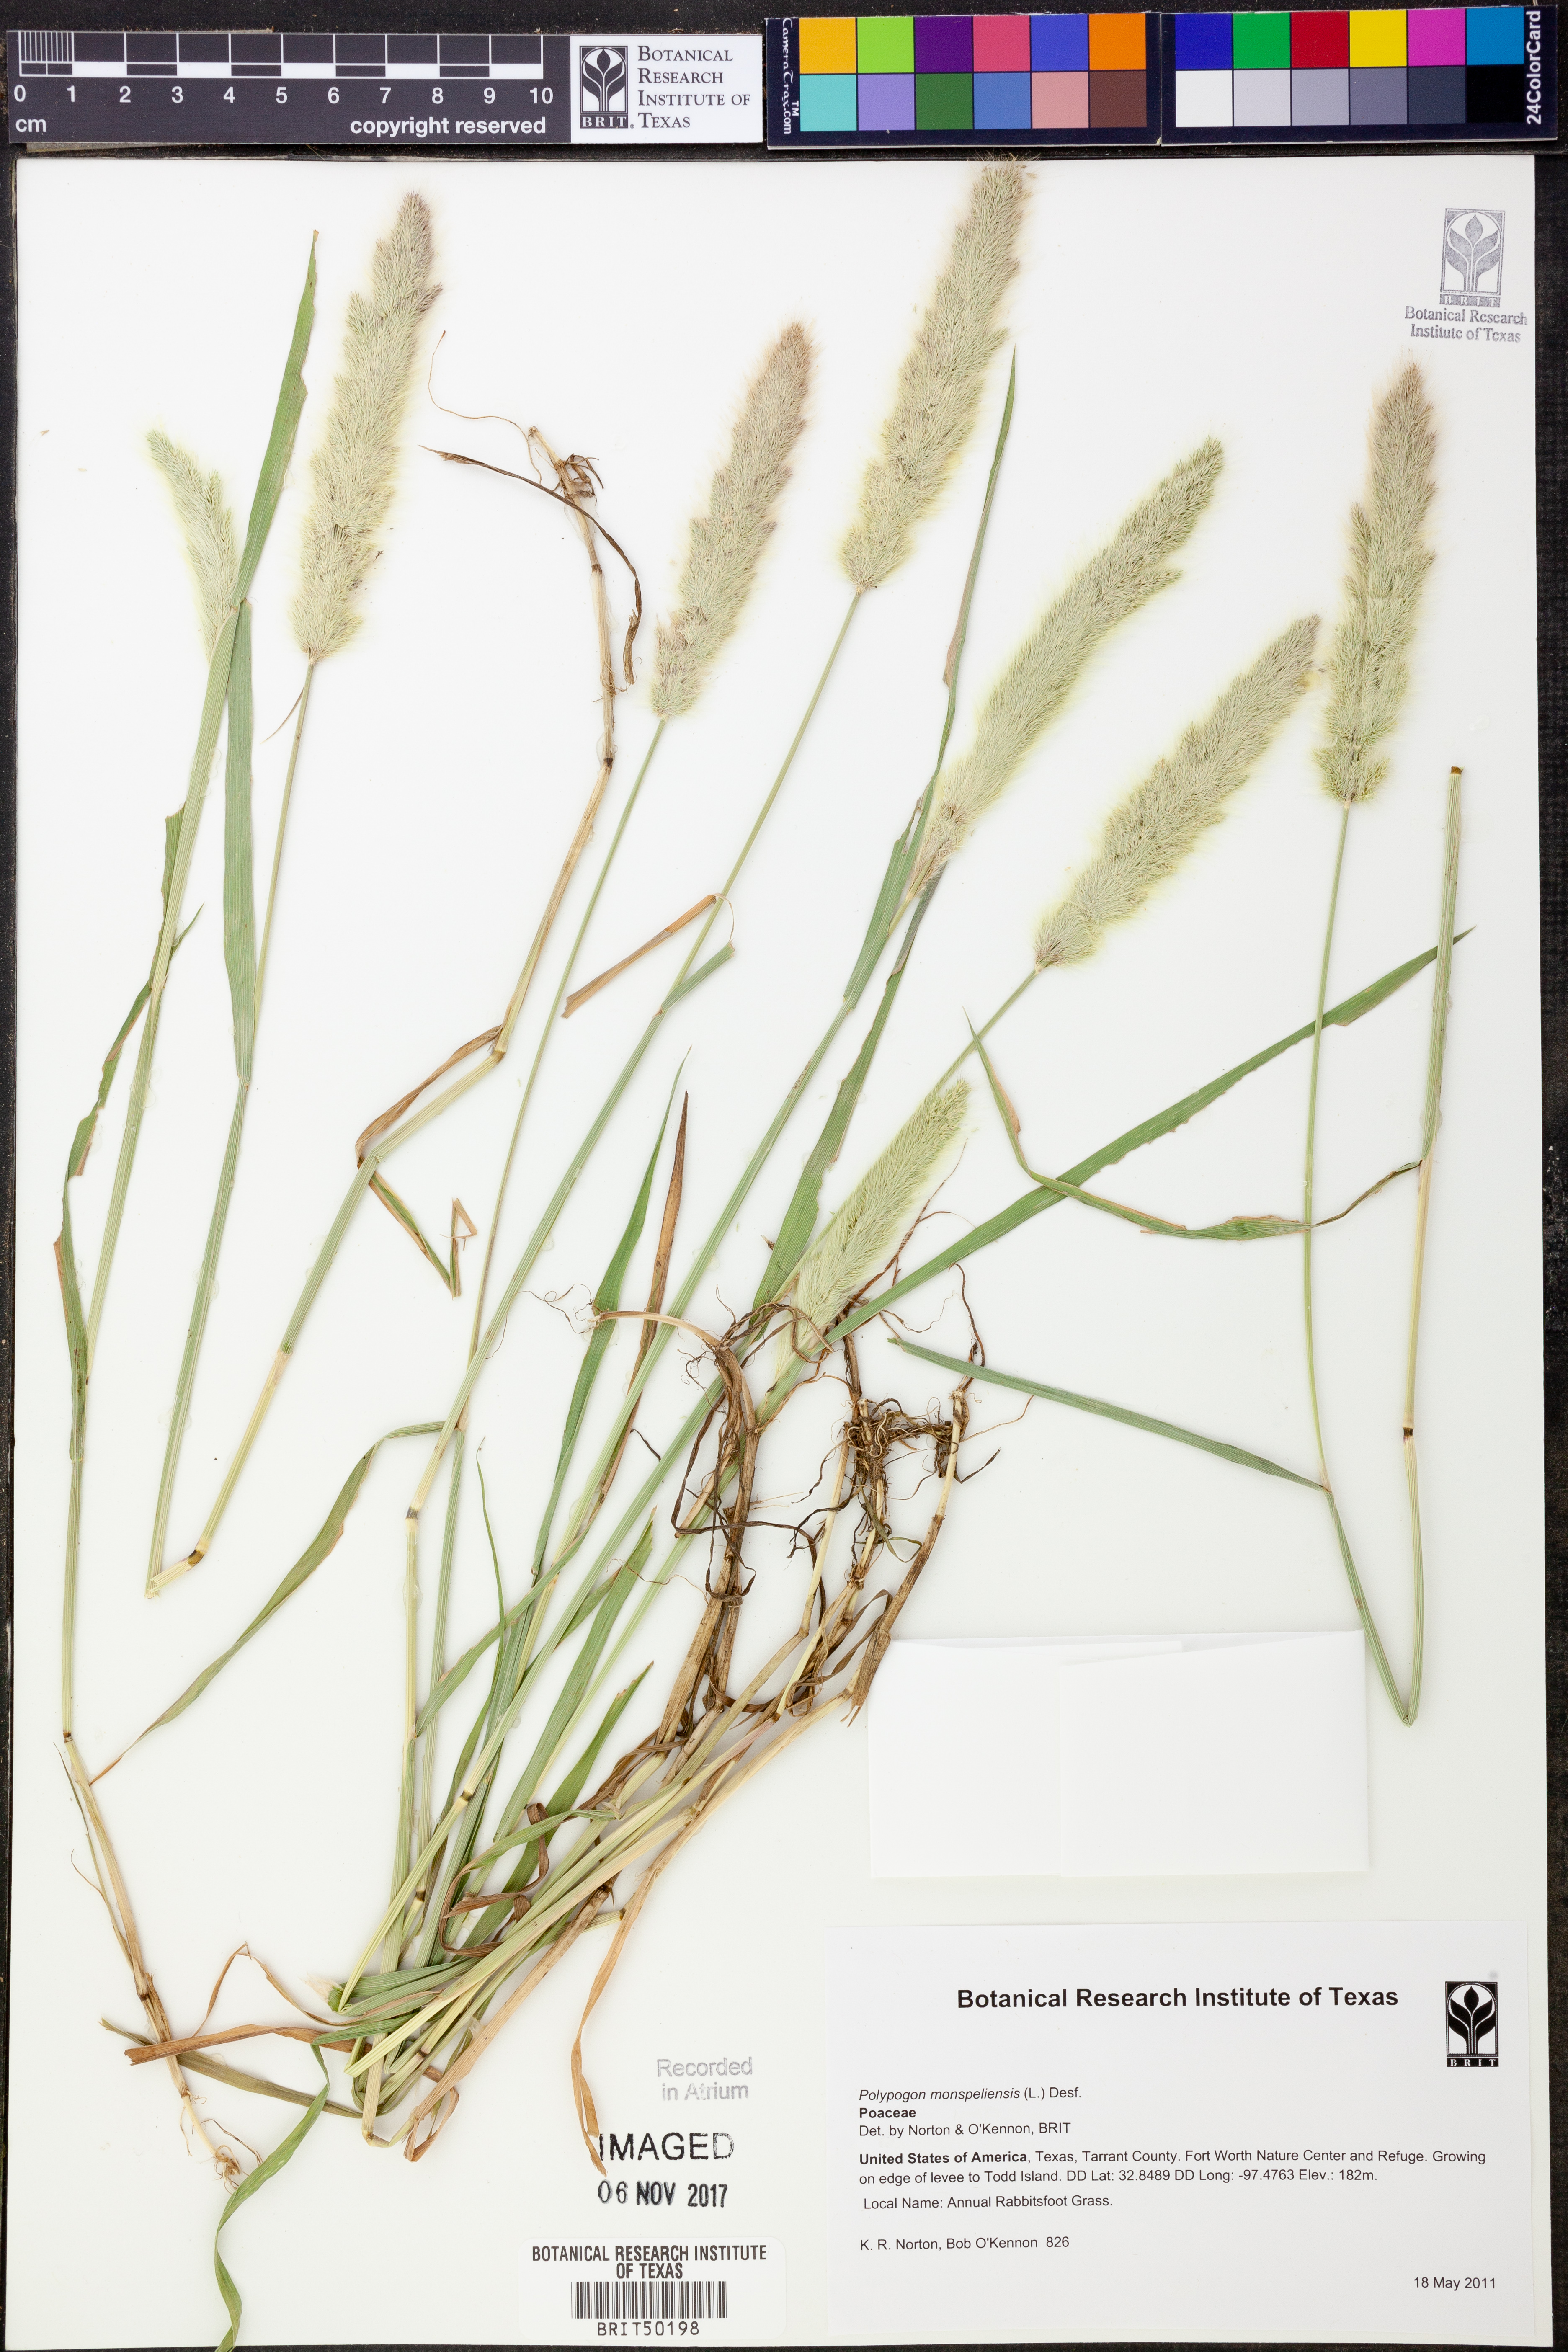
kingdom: Plantae
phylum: Tracheophyta
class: Liliopsida
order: Poales
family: Poaceae
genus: Polypogon
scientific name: Polypogon monspeliensis
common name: Annual rabbitsfoot grass
